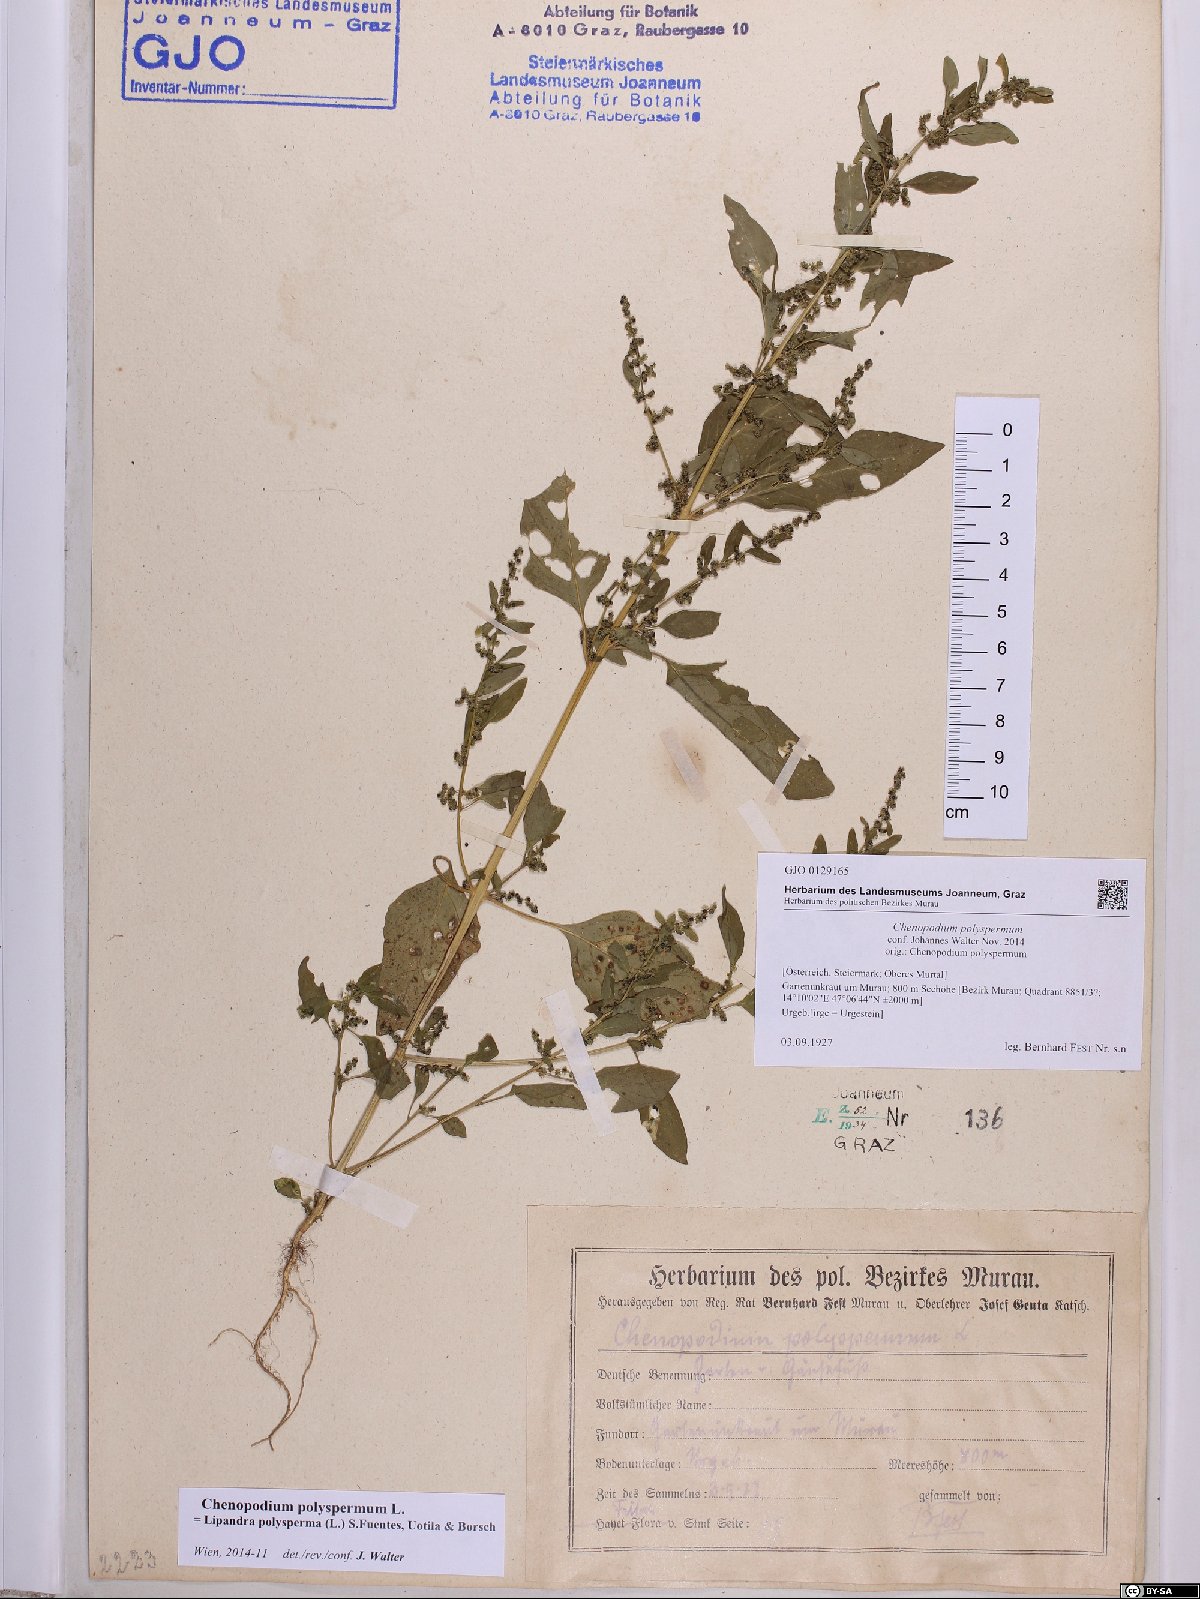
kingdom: Plantae
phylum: Tracheophyta
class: Magnoliopsida
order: Caryophyllales
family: Amaranthaceae
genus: Lipandra
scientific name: Lipandra polysperma
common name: Many-seed goosefoot
